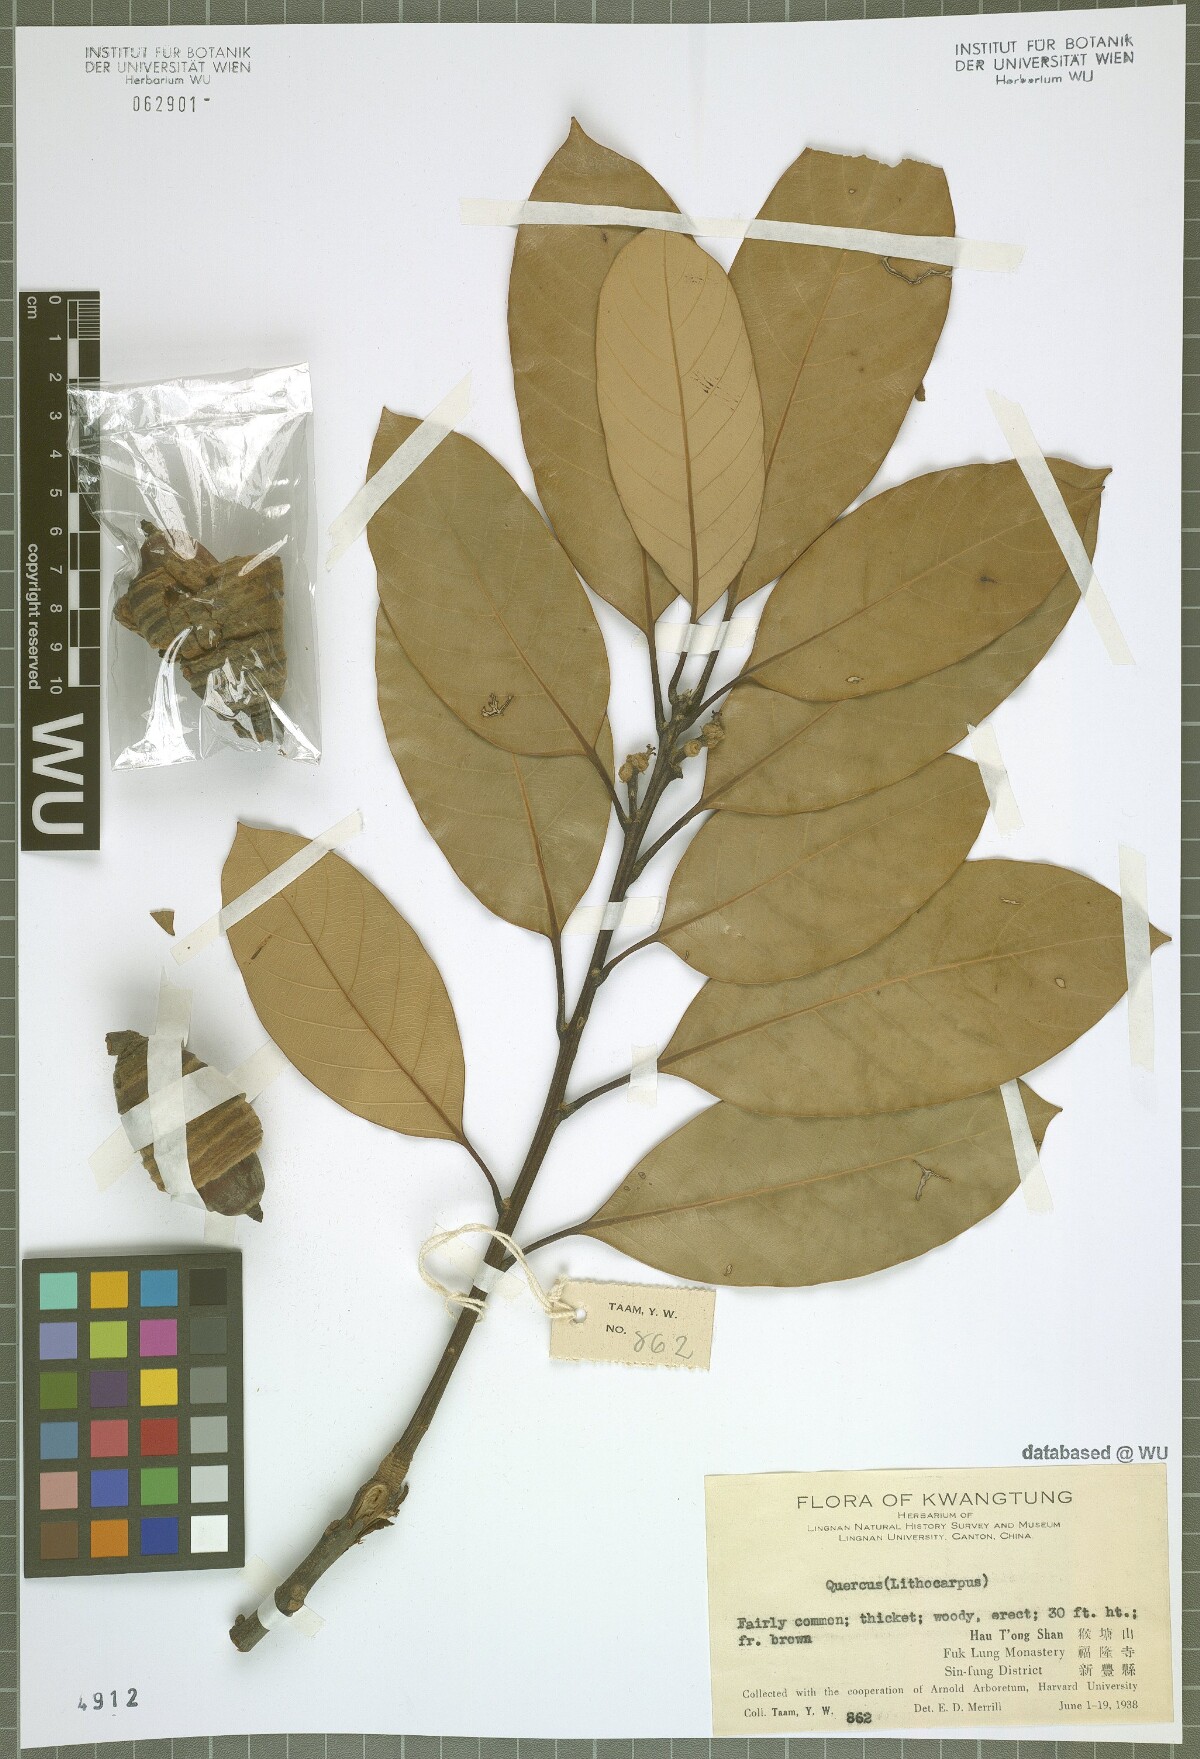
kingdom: Plantae
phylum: Tracheophyta
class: Magnoliopsida
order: Fagales
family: Fagaceae
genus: Quercus
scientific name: Quercus
